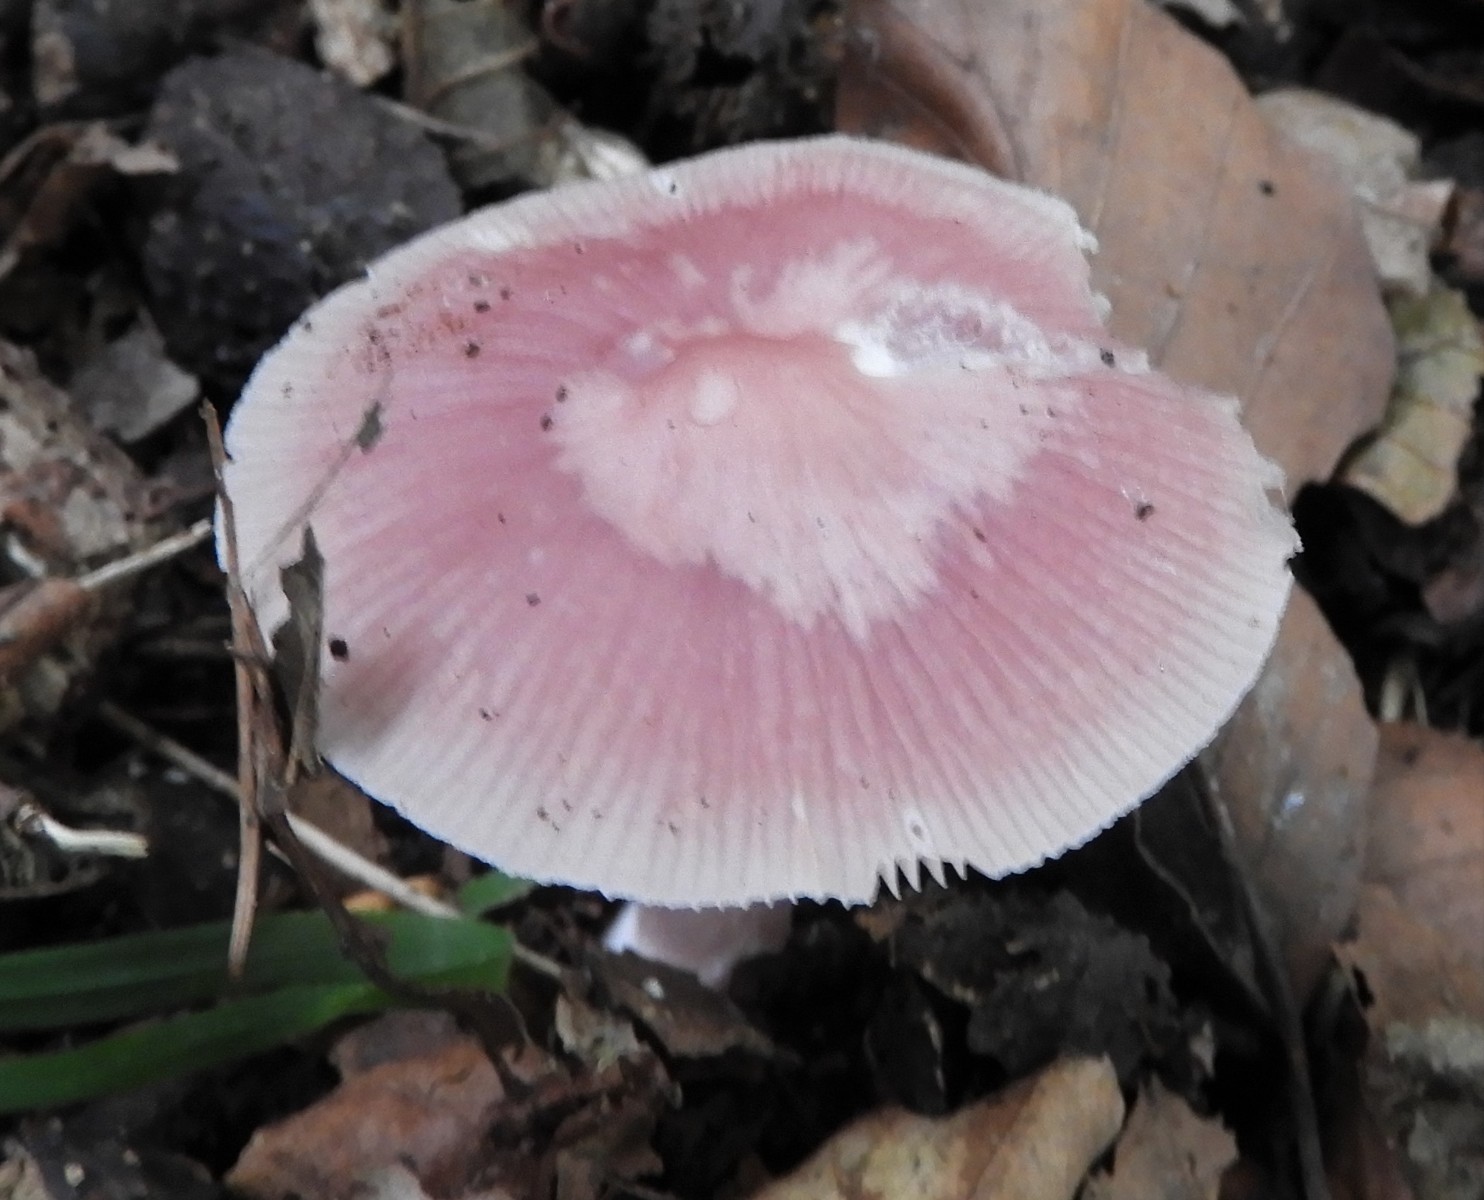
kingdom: Fungi
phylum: Basidiomycota
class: Agaricomycetes
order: Agaricales
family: Mycenaceae
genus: Mycena
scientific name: Mycena rosea
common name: rosa huesvamp
